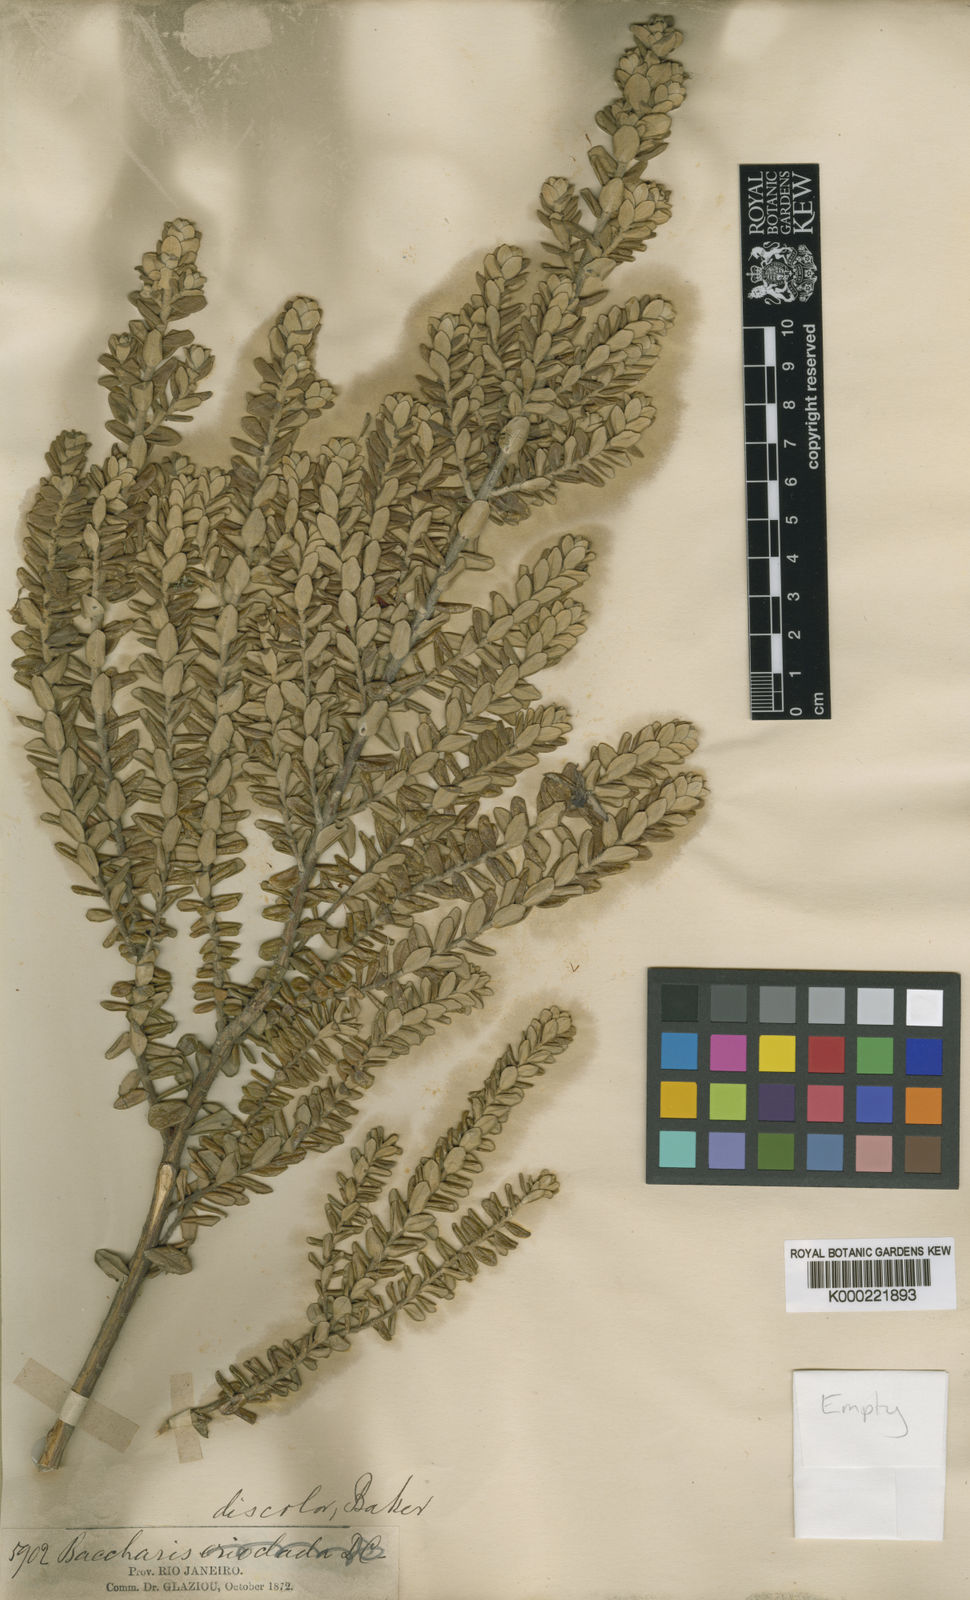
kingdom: Plantae
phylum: Tracheophyta
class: Magnoliopsida
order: Asterales
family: Asteraceae
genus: Baccharis
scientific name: Baccharis uncinella
